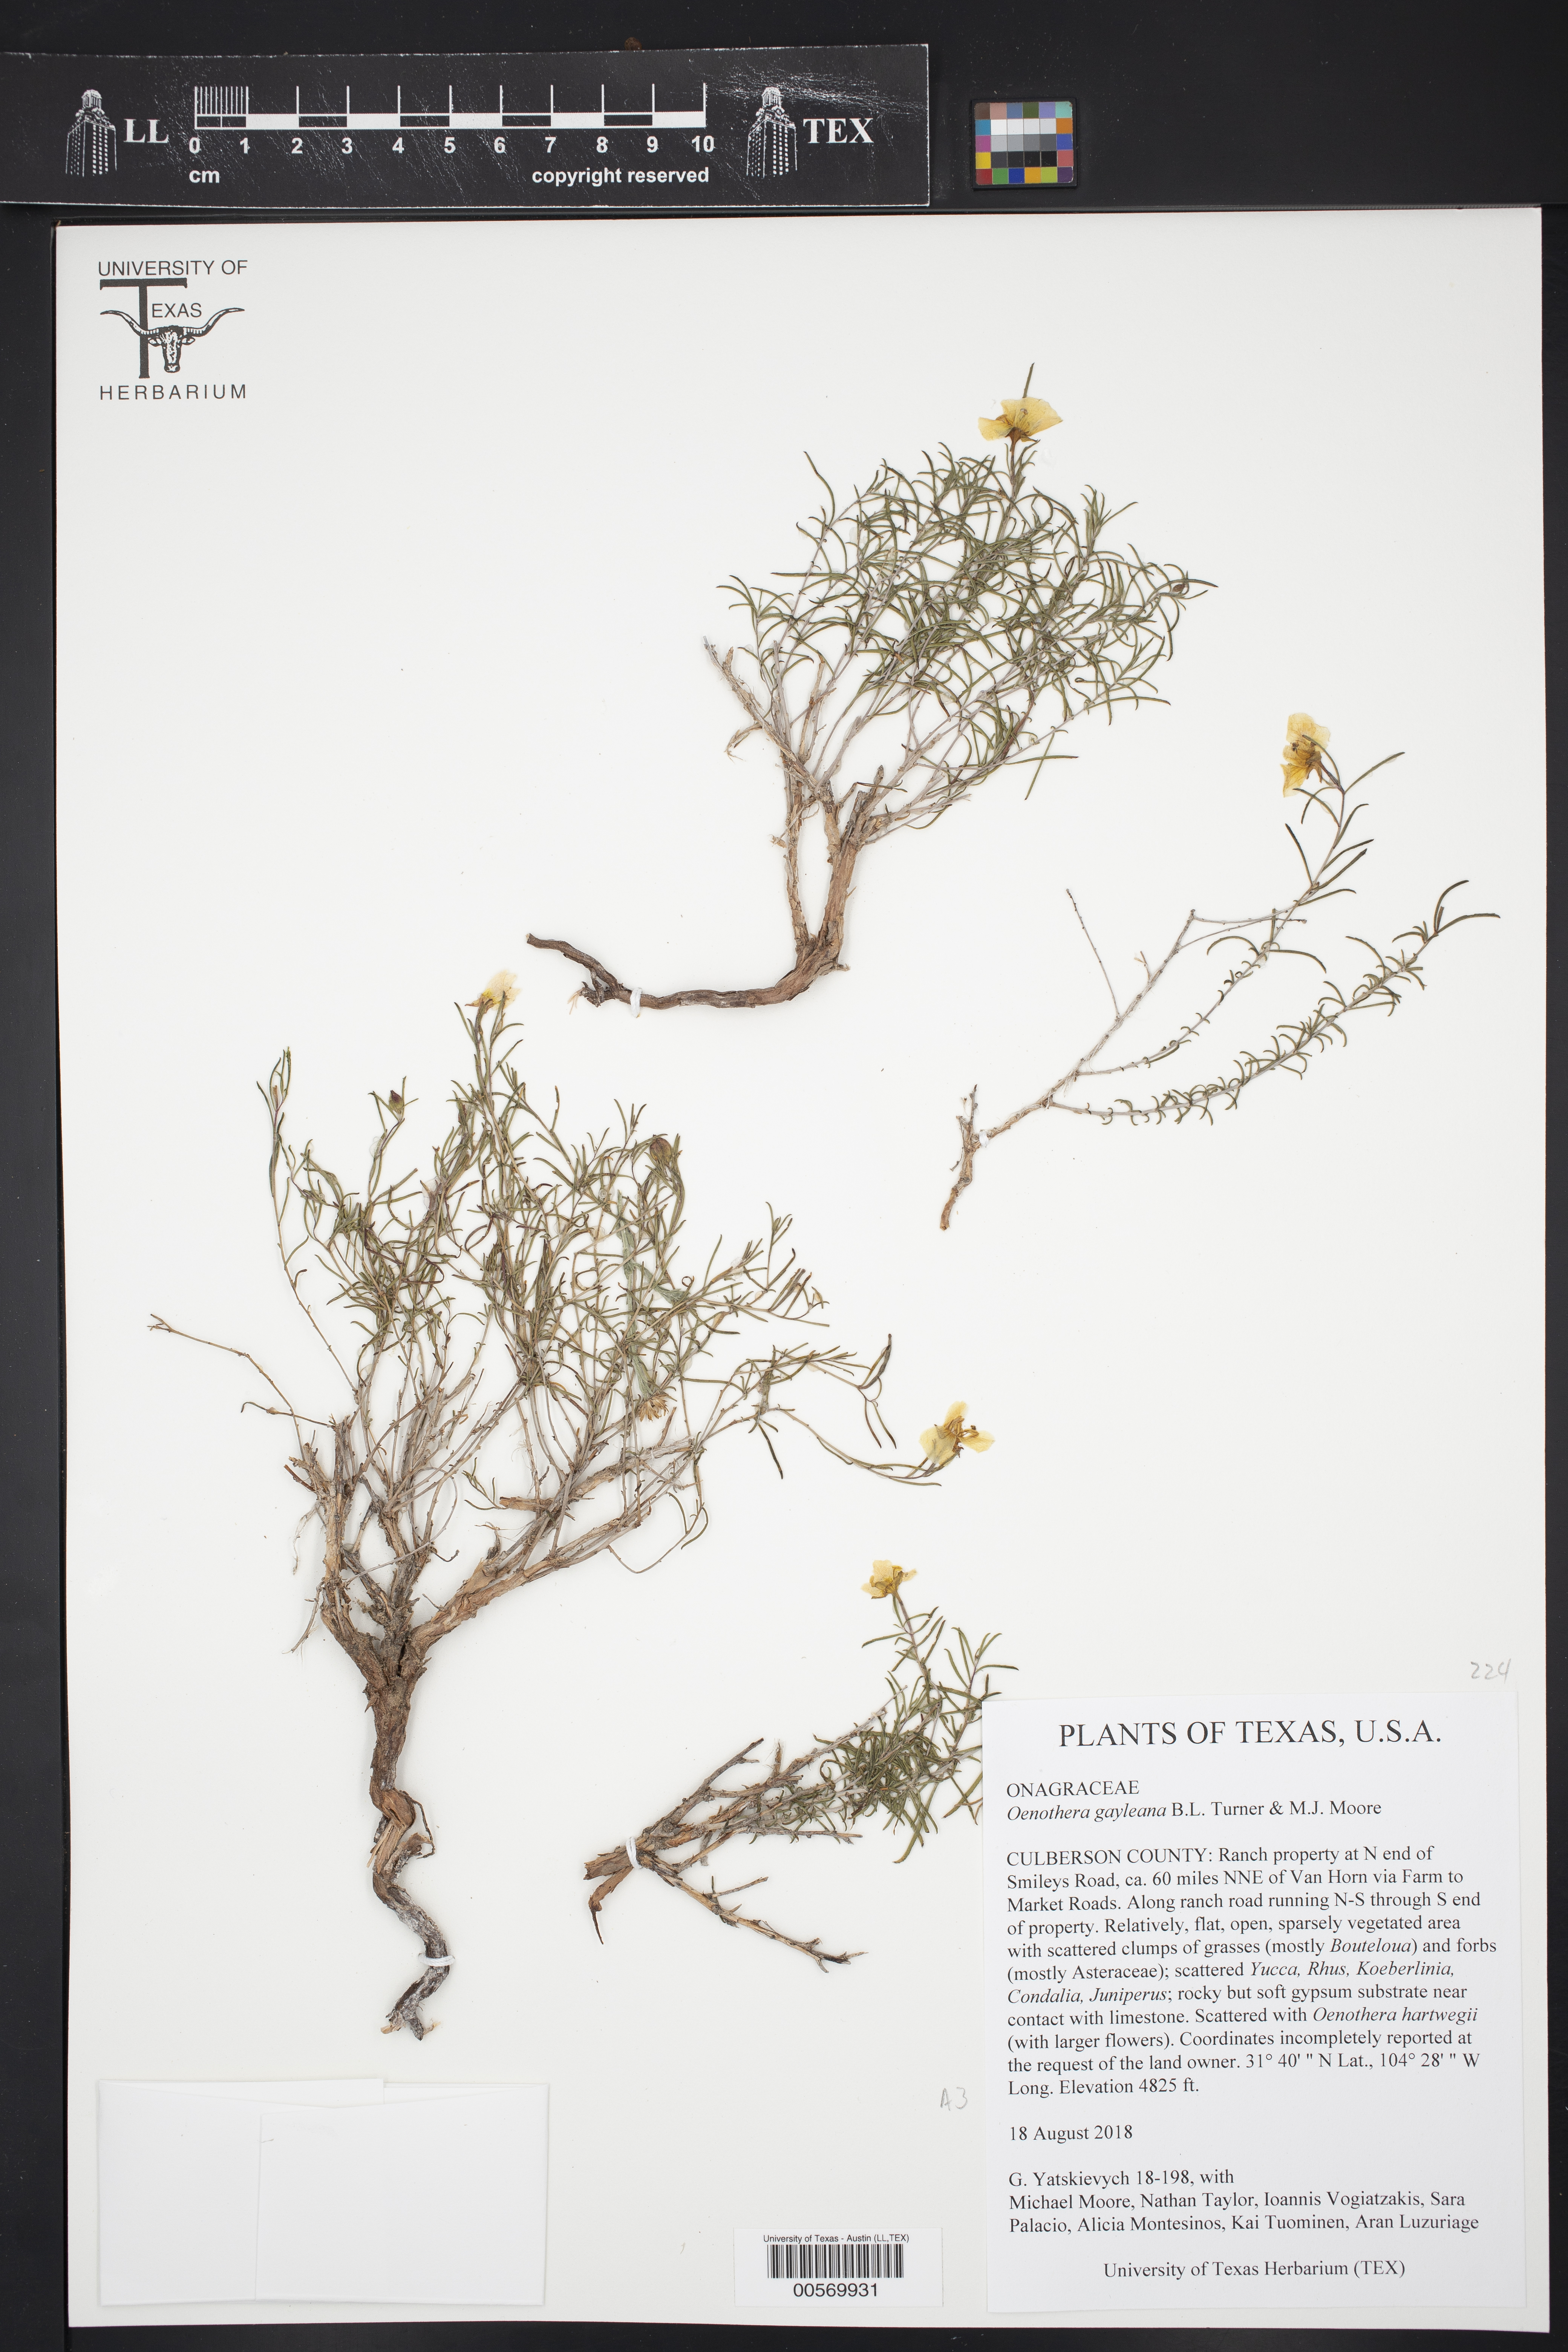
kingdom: Plantae
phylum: Tracheophyta
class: Magnoliopsida
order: Myrtales
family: Onagraceae
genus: Oenothera
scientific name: Oenothera gayleana
